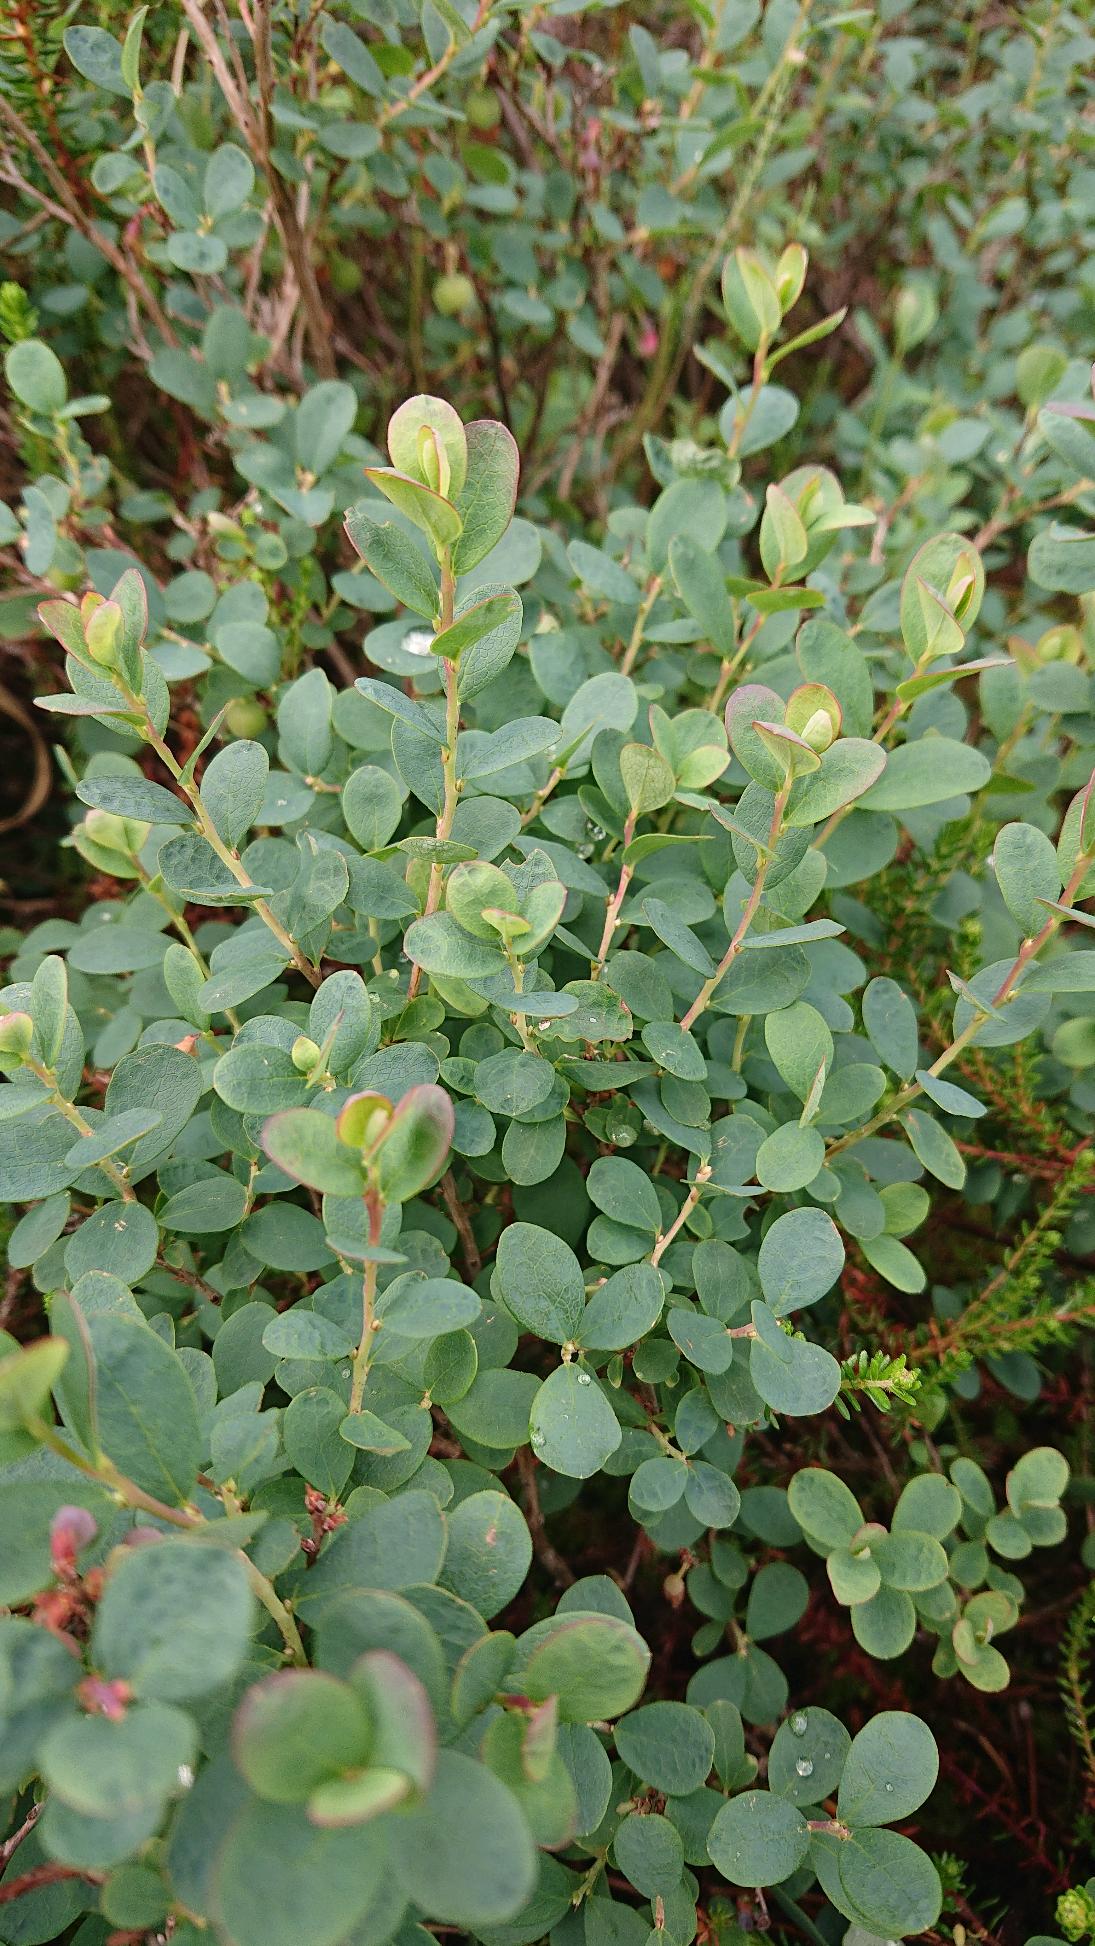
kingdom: Plantae
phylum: Tracheophyta
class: Magnoliopsida
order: Ericales
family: Ericaceae
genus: Vaccinium
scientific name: Vaccinium uliginosum
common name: Mose-bølle
